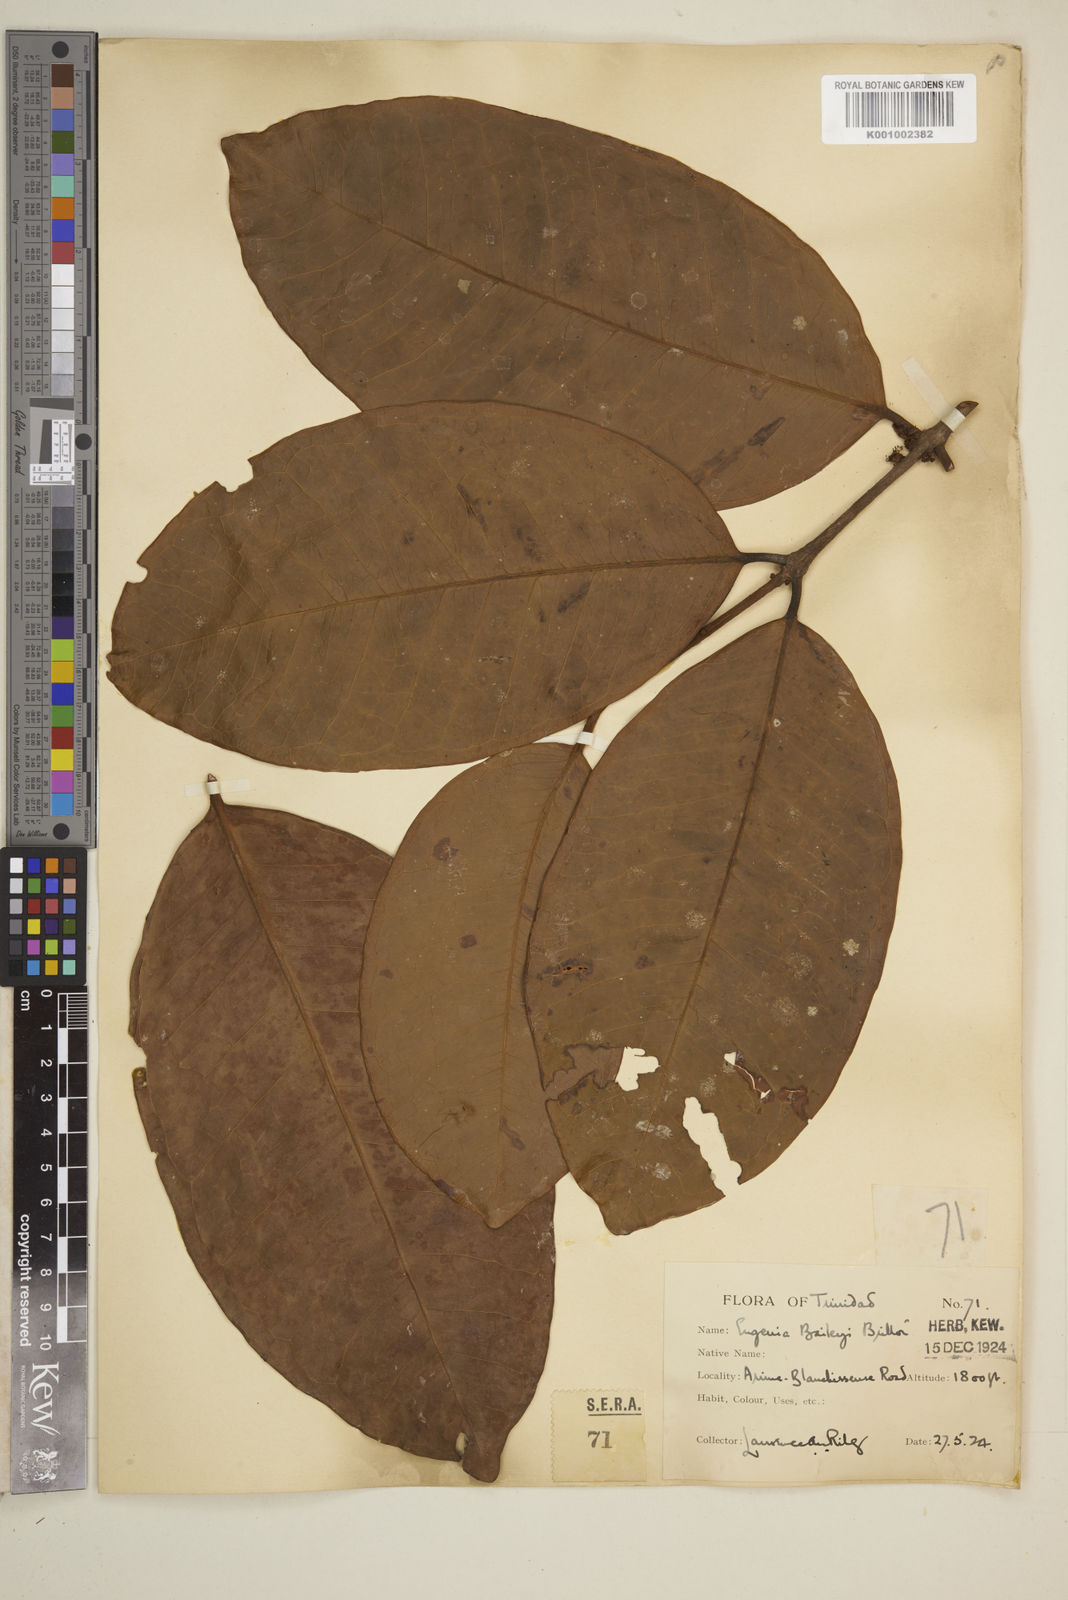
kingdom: Plantae
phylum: Tracheophyta
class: Magnoliopsida
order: Myrtales
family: Myrtaceae
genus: Eugenia
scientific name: Eugenia baileyi
